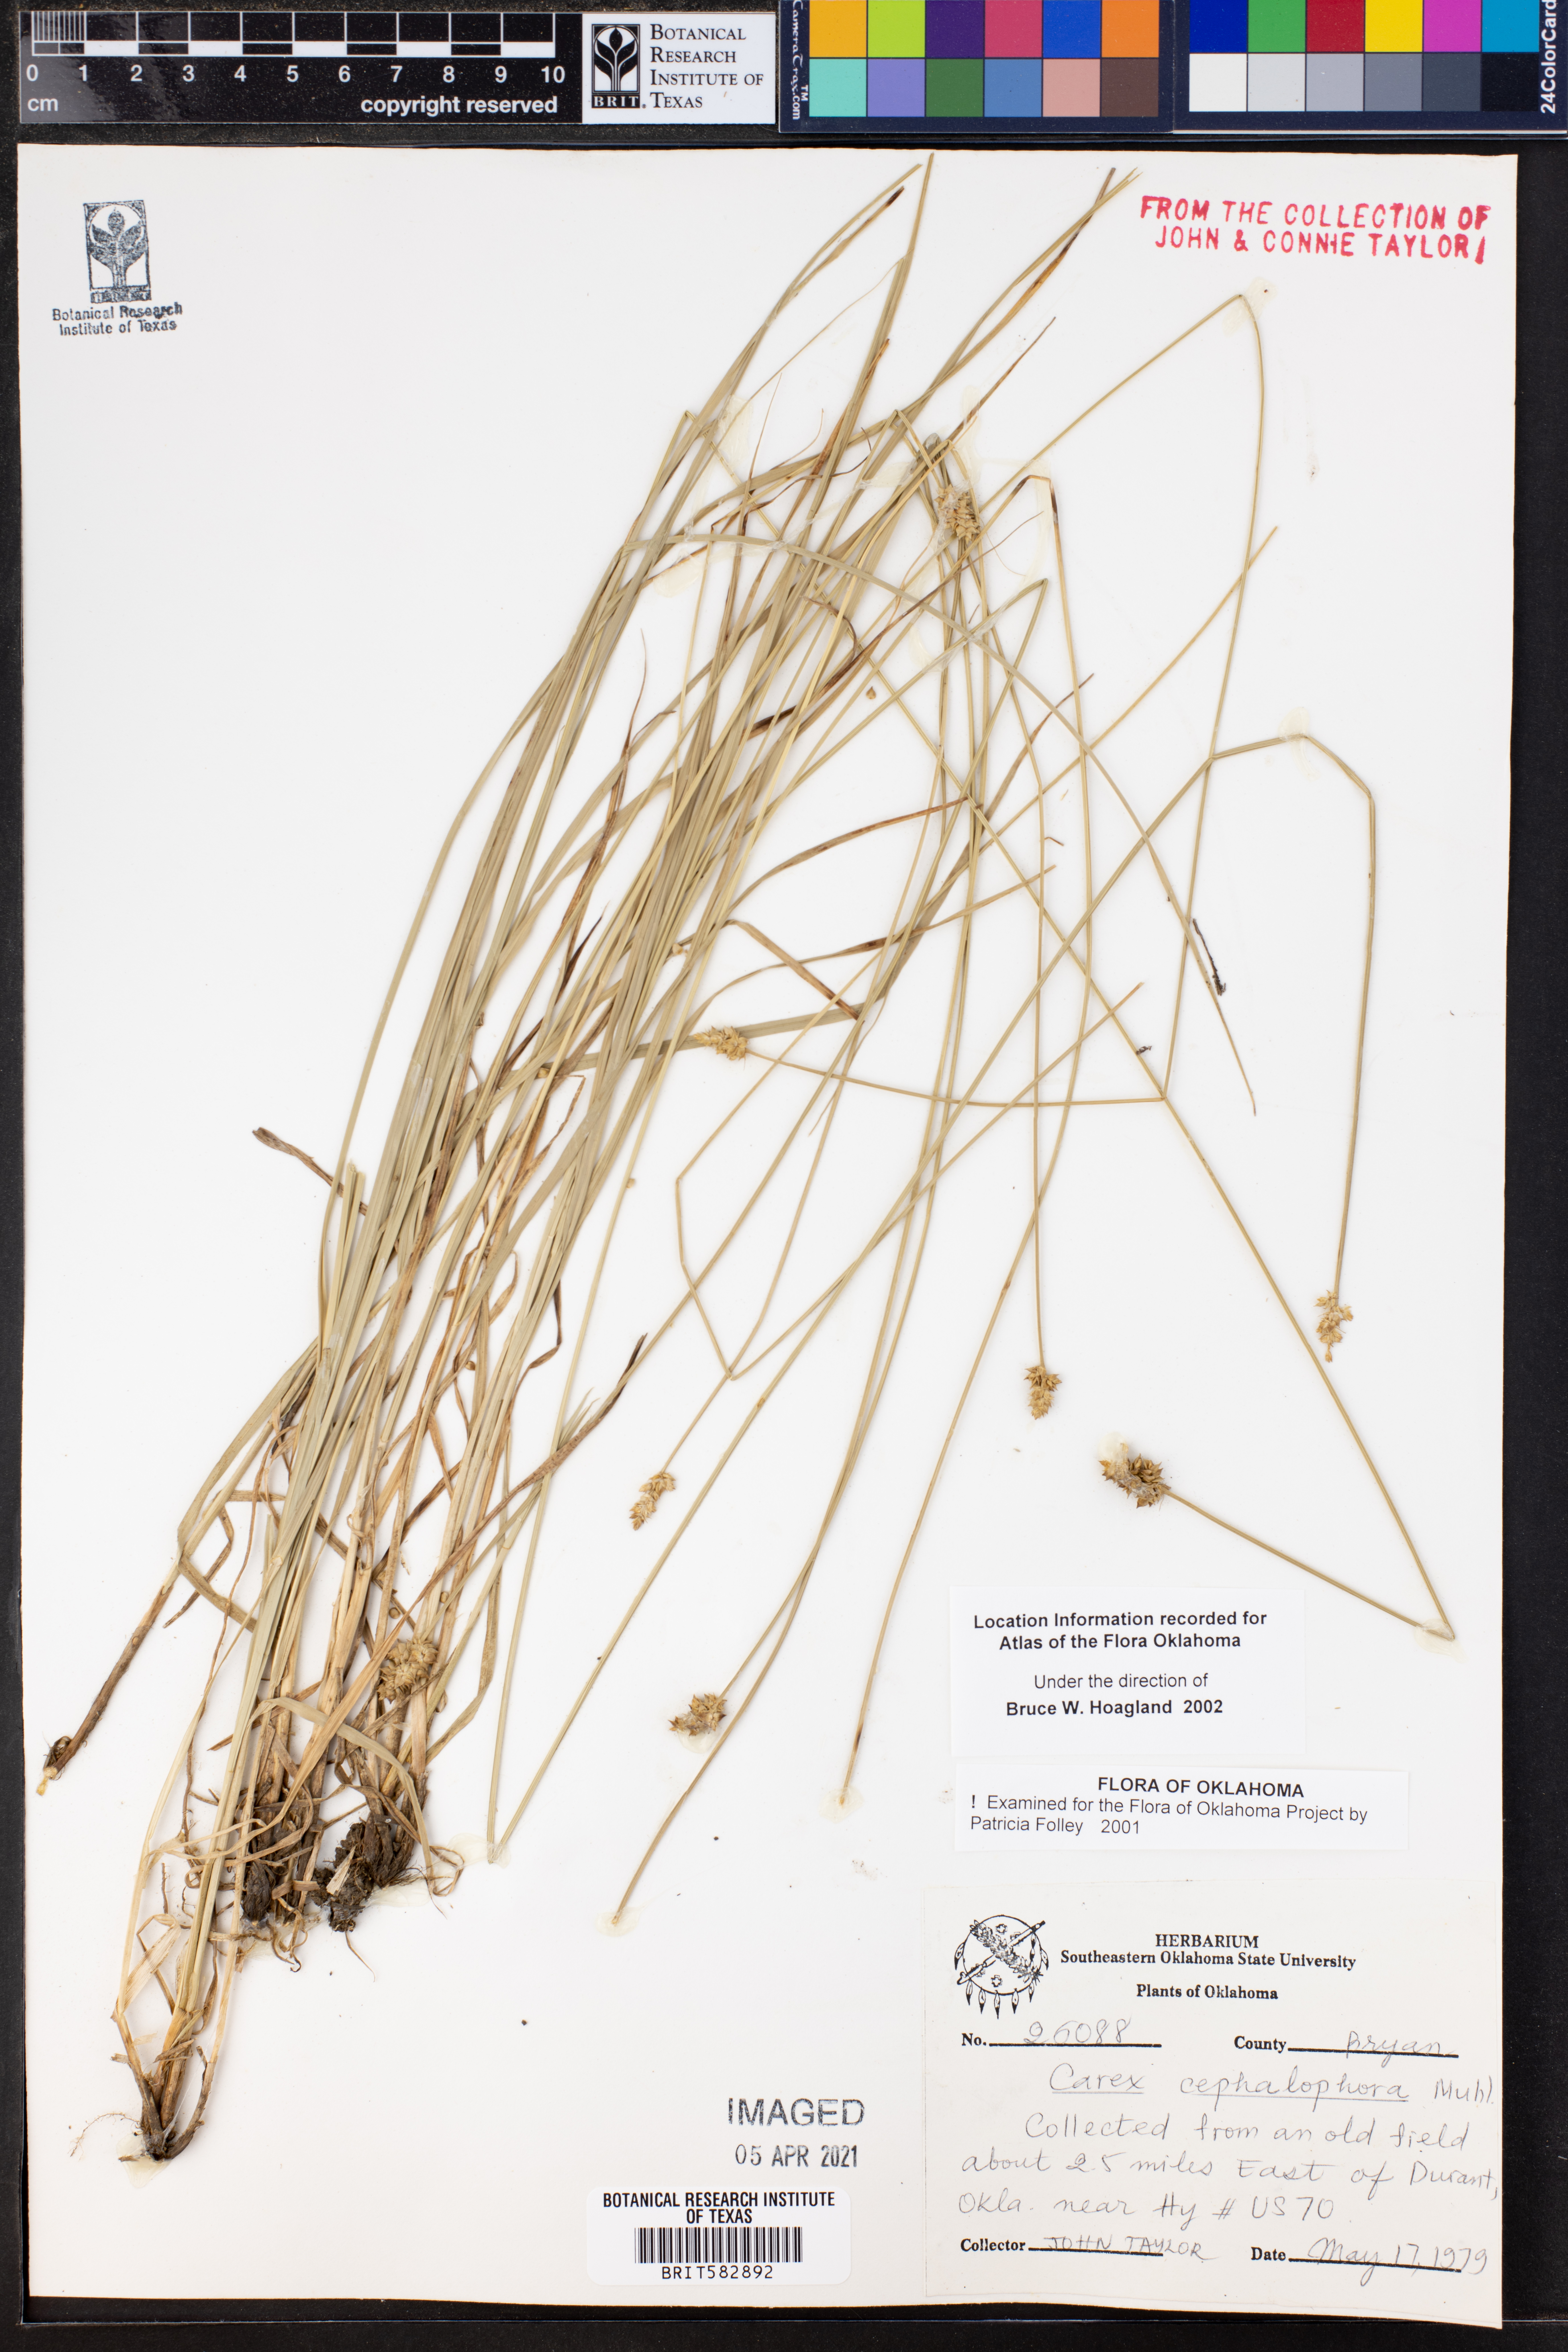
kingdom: Plantae
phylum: Tracheophyta
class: Liliopsida
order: Poales
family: Cyperaceae
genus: Carex
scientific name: Carex cephalophora
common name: Oval-headed sedge
